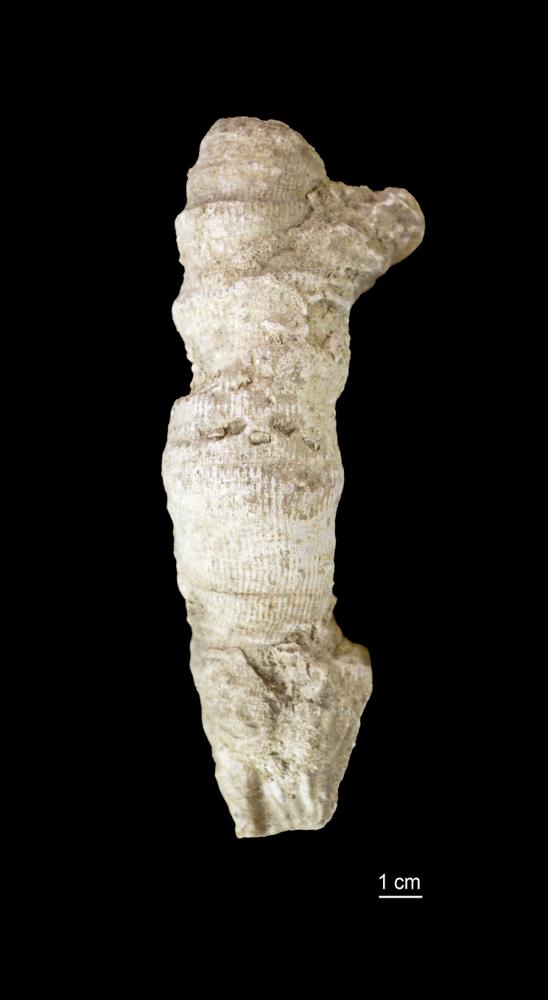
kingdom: Animalia
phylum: Cnidaria
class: Anthozoa
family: Cyathophyllidae
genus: Cyathophyllum
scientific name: Cyathophyllum
